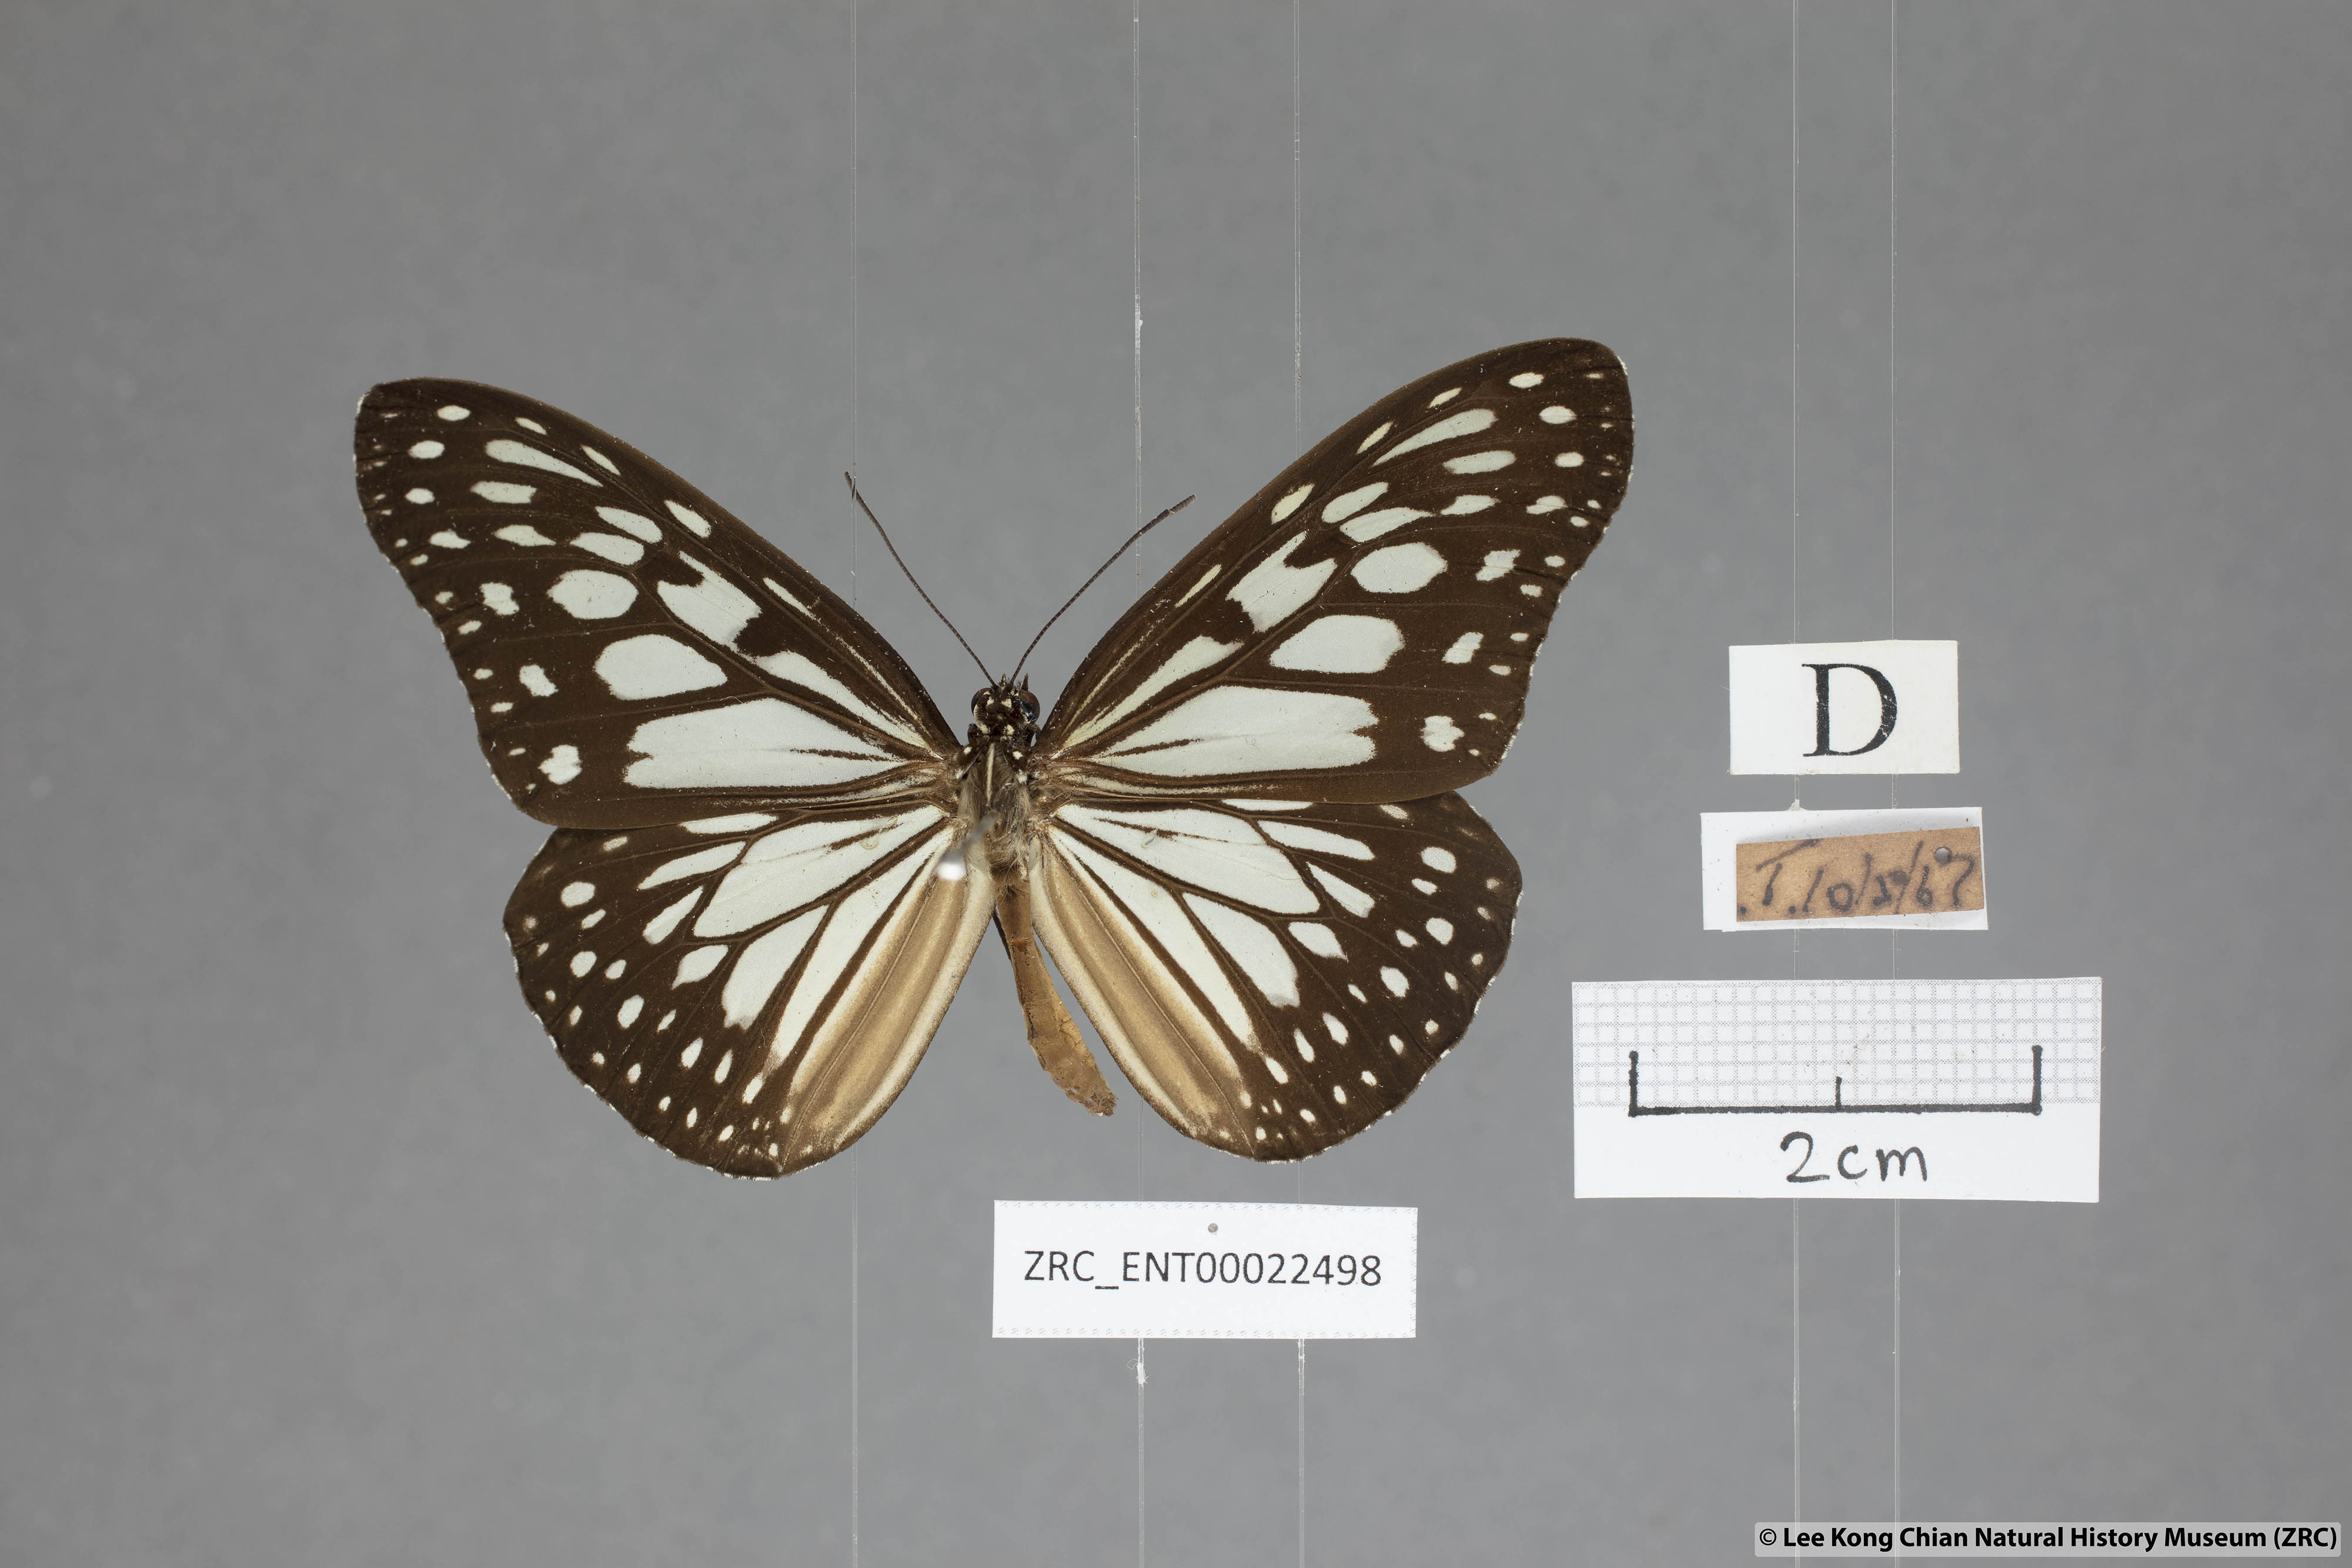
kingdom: Animalia
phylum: Arthropoda
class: Insecta
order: Lepidoptera
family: Nymphalidae
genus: Ideopsis
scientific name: Ideopsis juventa
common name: Grey glassy tiger
